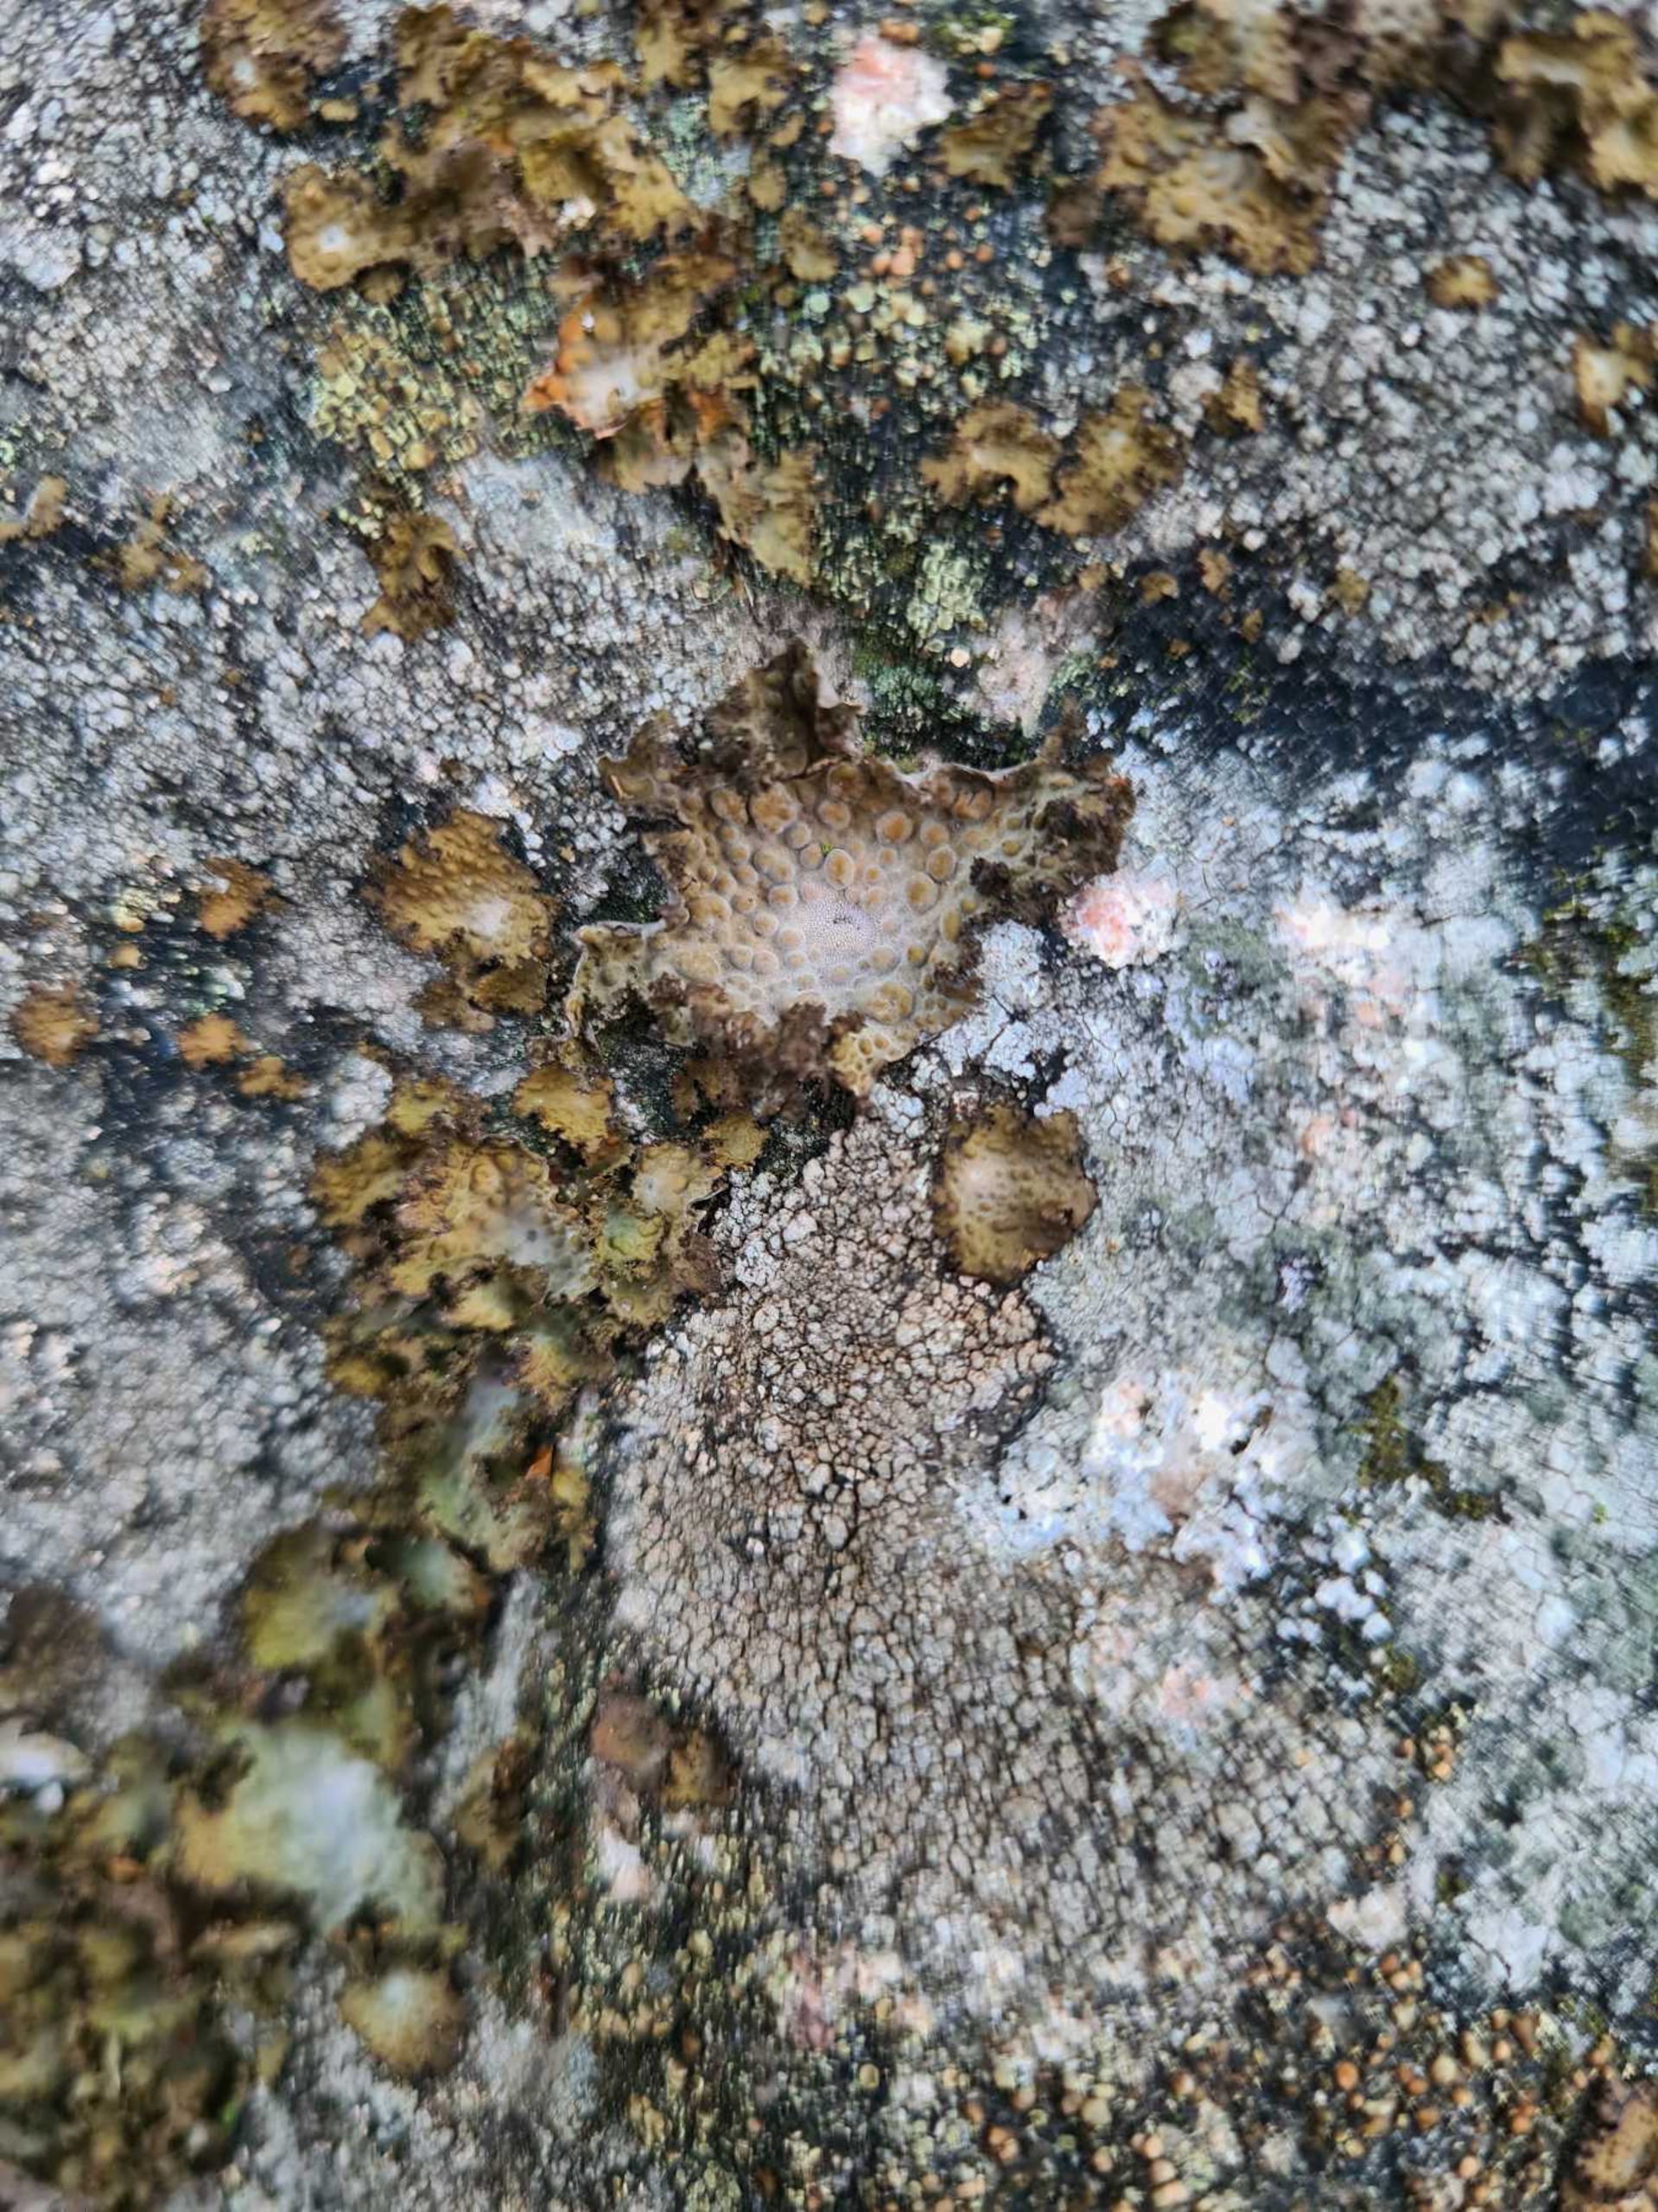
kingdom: Fungi
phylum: Ascomycota
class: Lecanoromycetes
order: Umbilicariales
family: Umbilicariaceae
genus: Lasallia
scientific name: Lasallia pustulata
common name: Buklet navlelav
